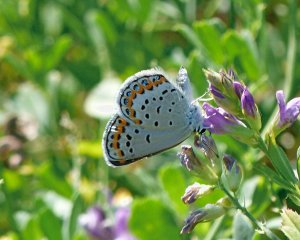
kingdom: Animalia
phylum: Arthropoda
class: Insecta
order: Lepidoptera
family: Lycaenidae
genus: Lycaeides
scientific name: Lycaeides melissa
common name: Melissa Blue
